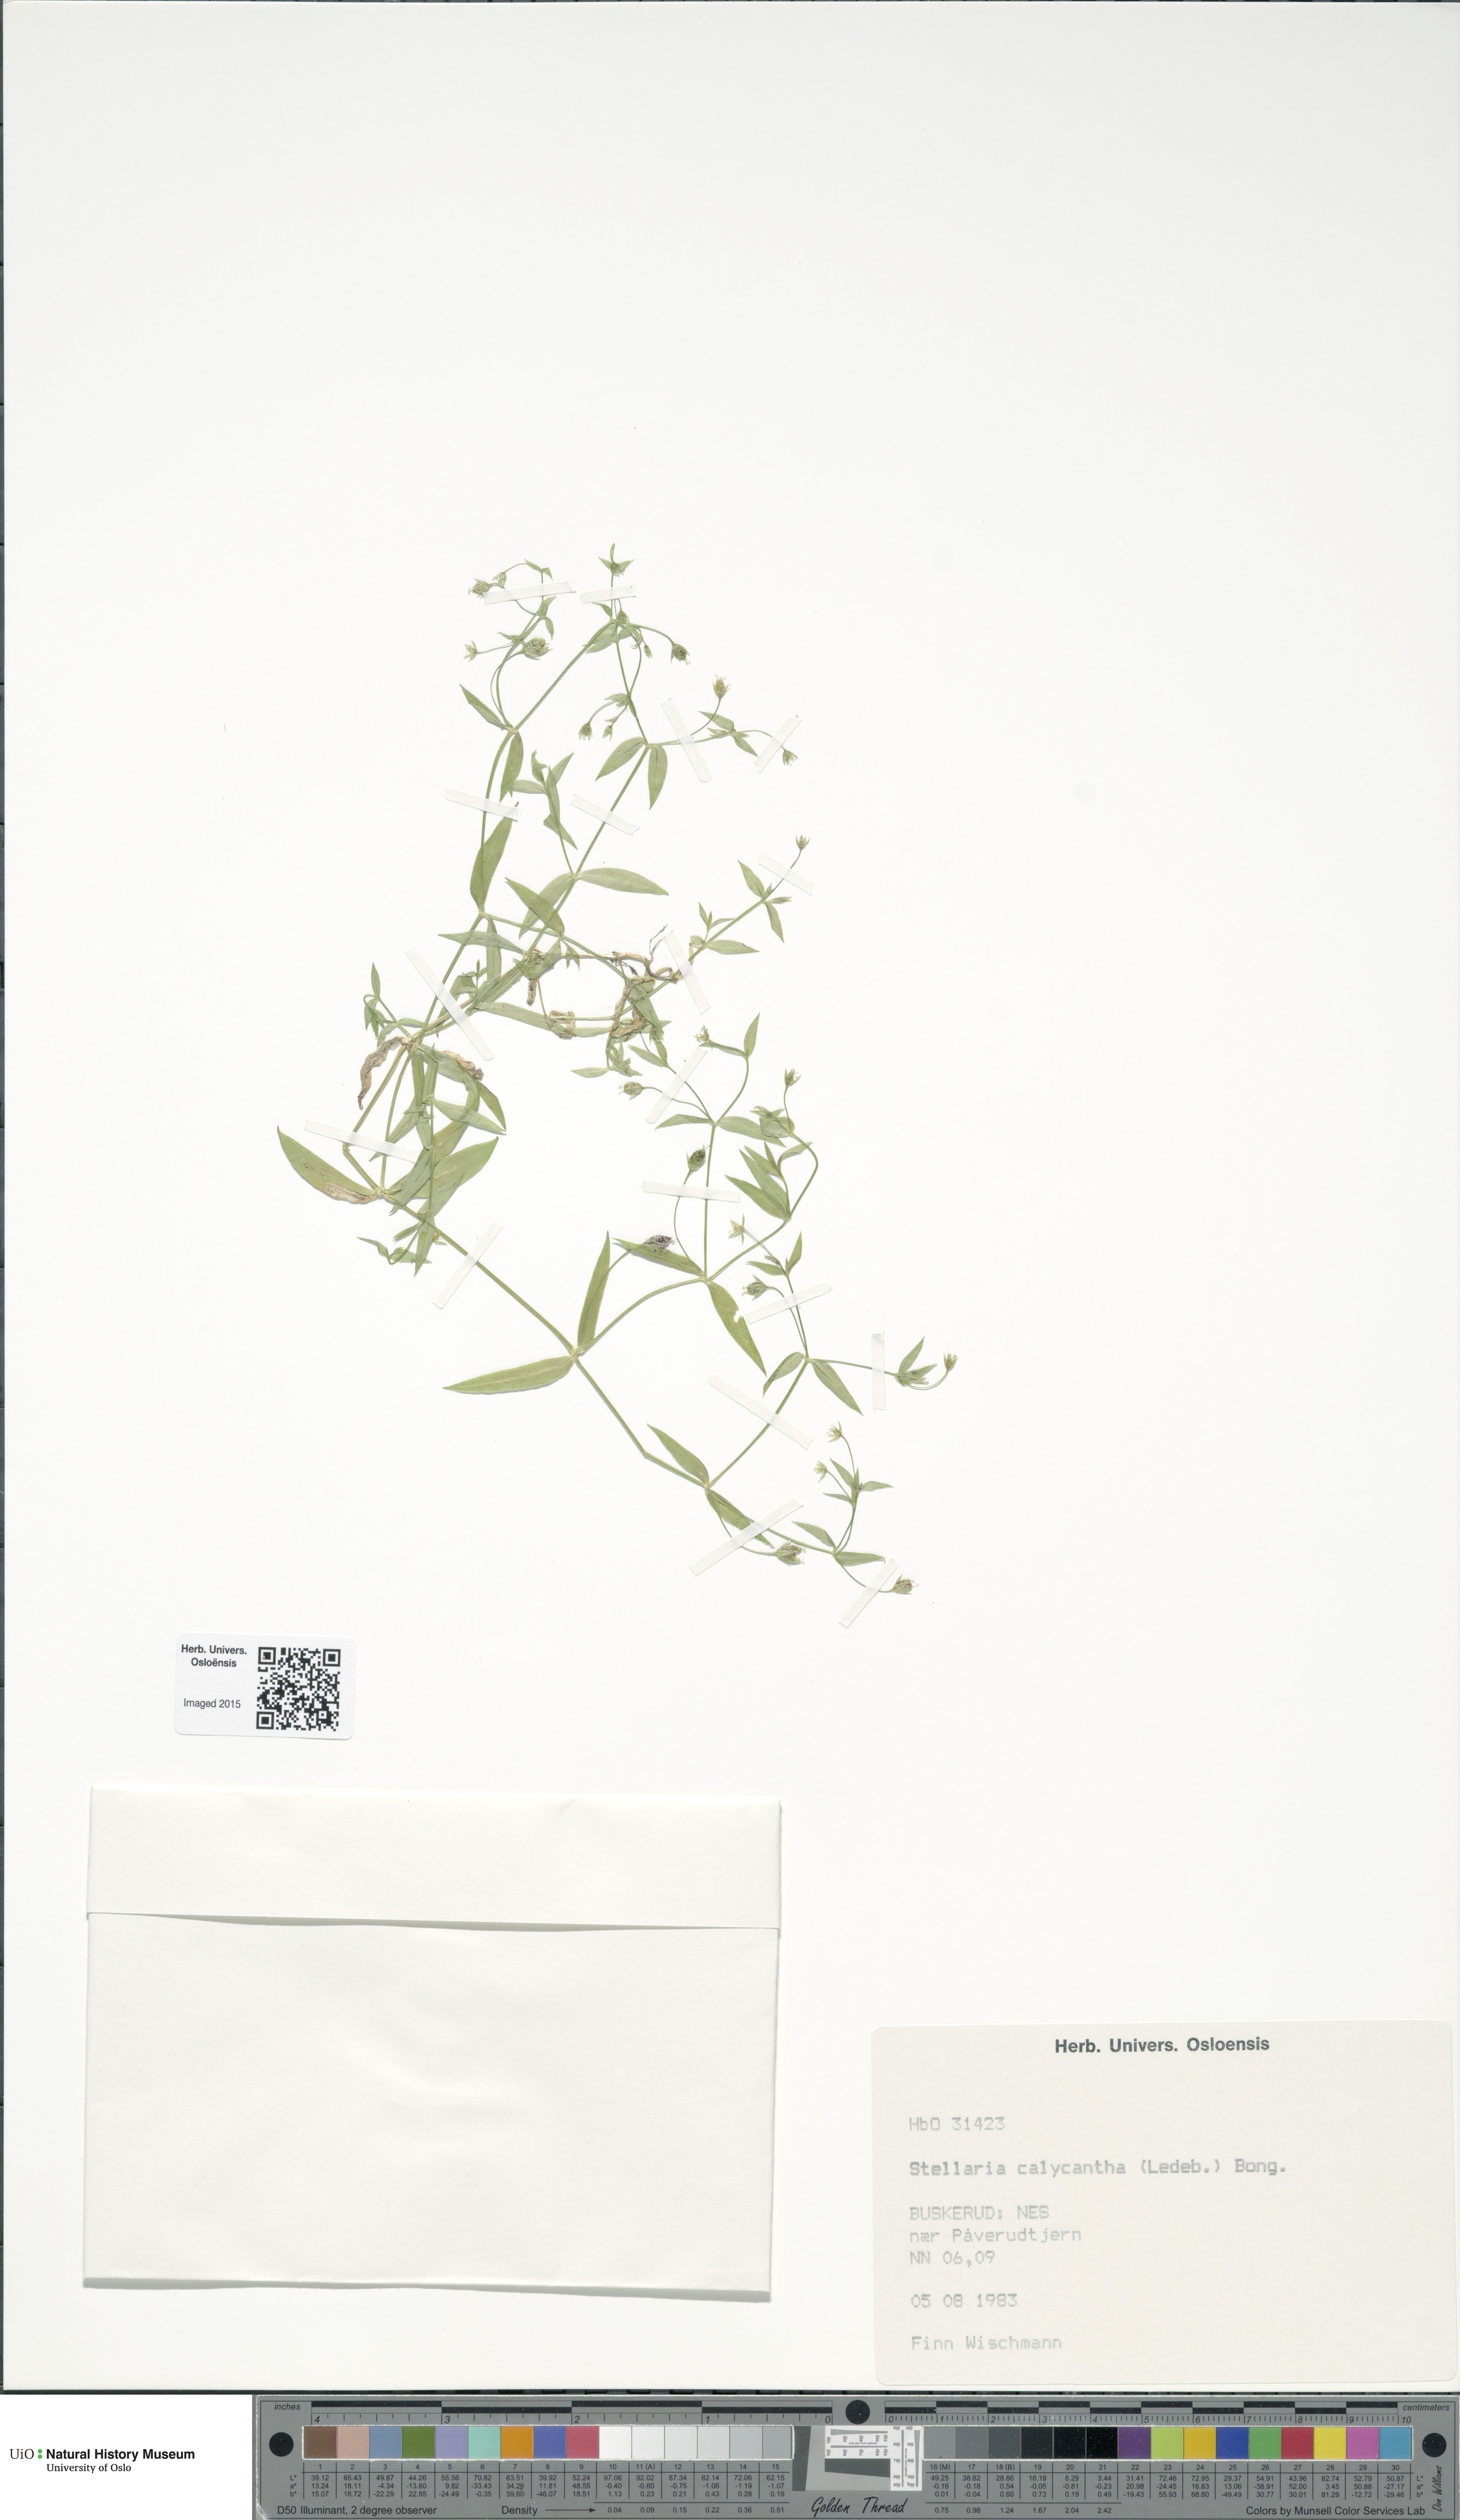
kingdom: Plantae
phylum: Tracheophyta
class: Magnoliopsida
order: Caryophyllales
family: Caryophyllaceae
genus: Stellaria
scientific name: Stellaria borealis
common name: Boreal starwort
